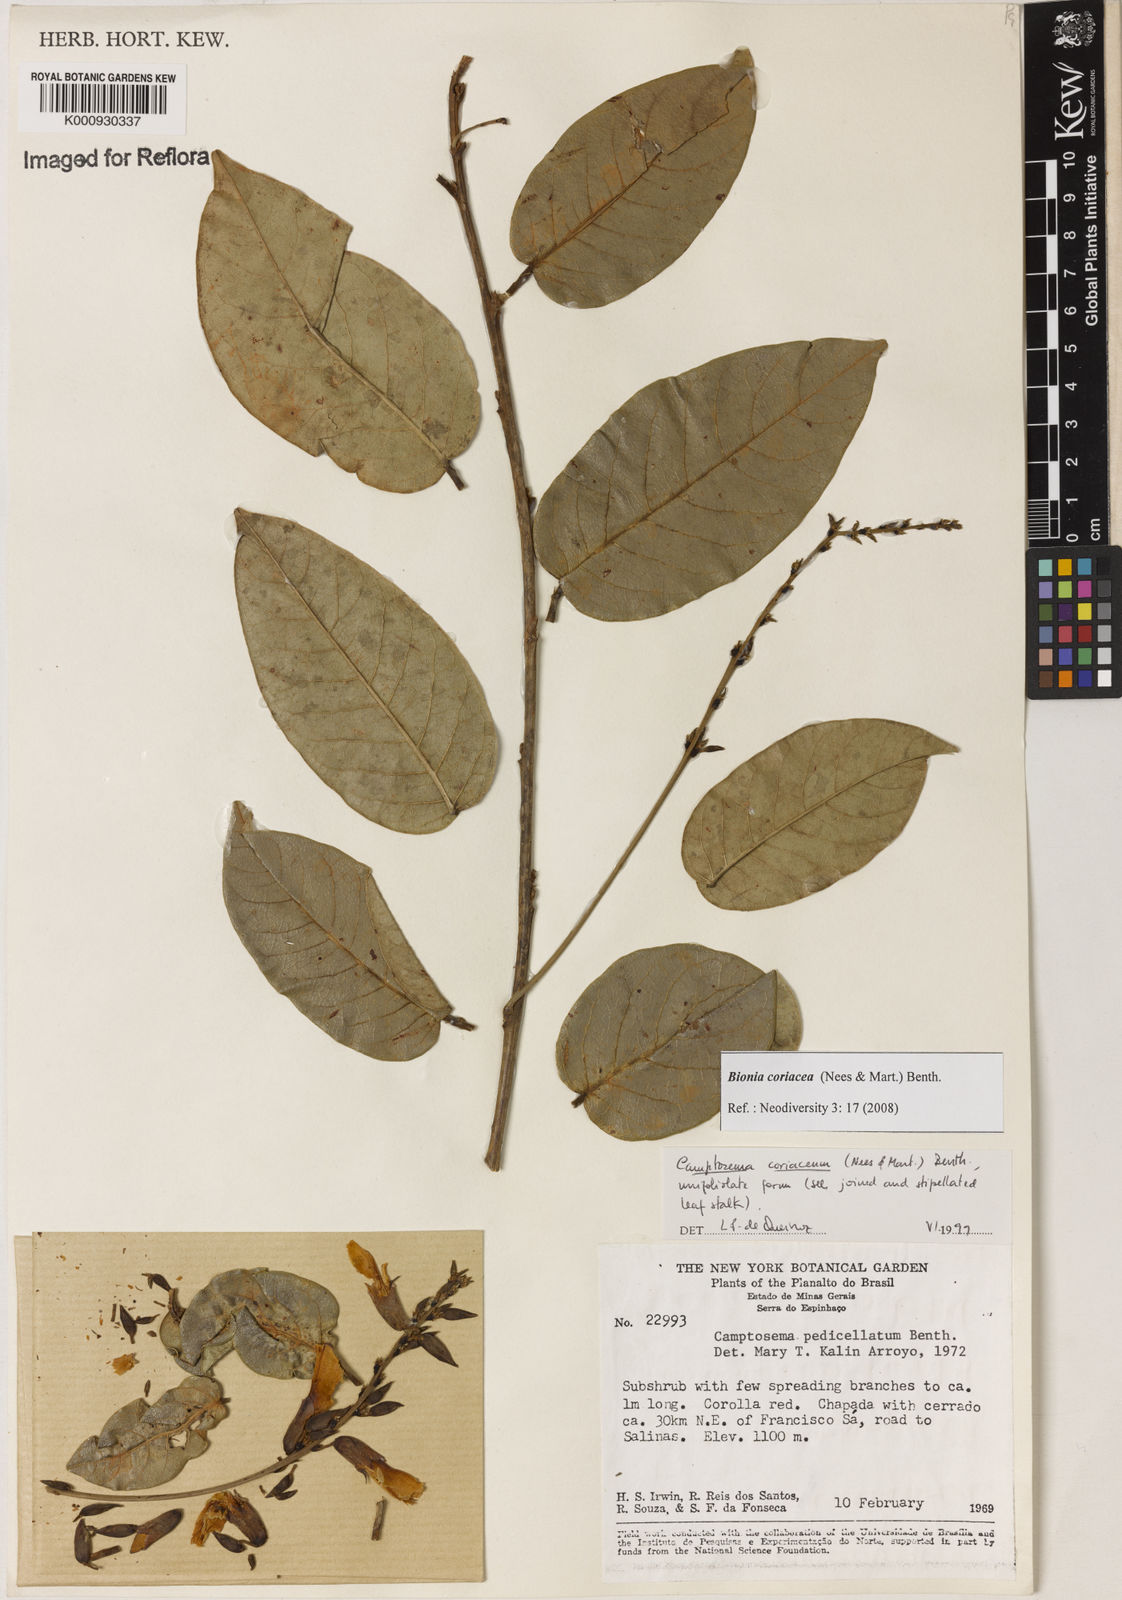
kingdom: Plantae
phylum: Tracheophyta
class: Magnoliopsida
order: Fabales
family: Fabaceae
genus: Camptosema
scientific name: Camptosema coriaceum
